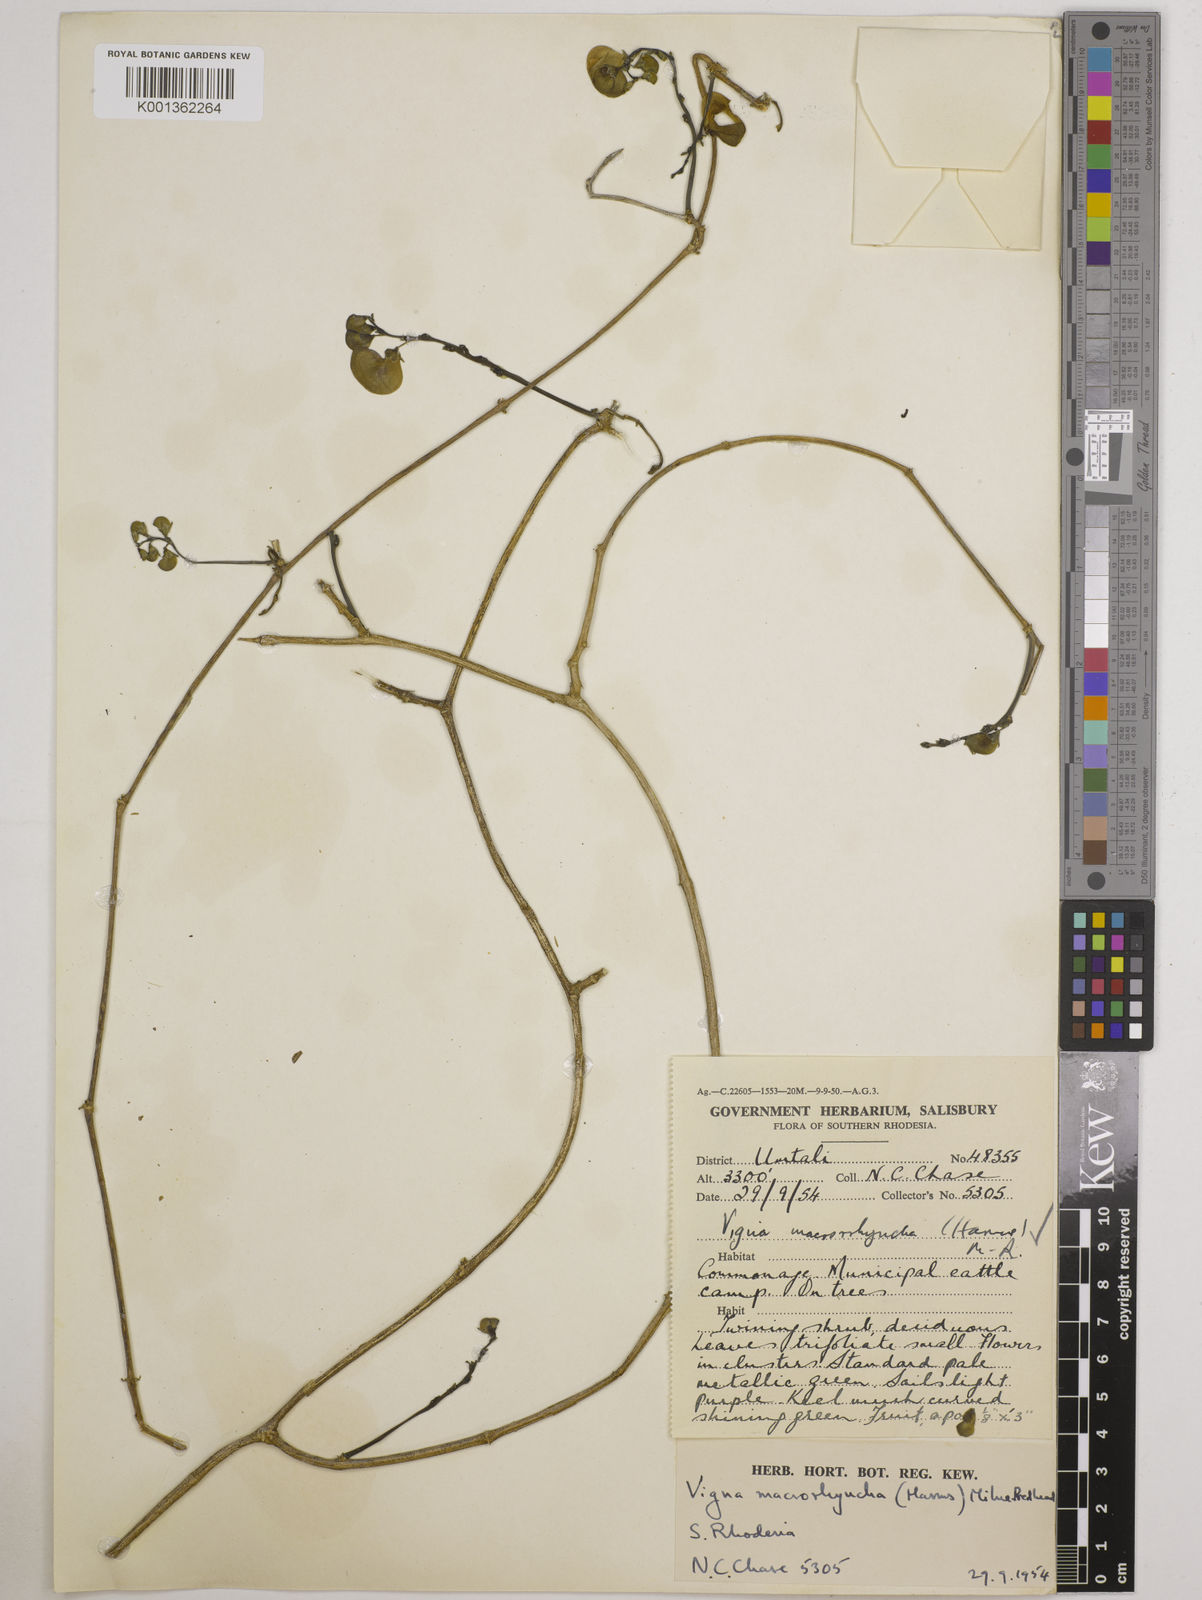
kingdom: Plantae
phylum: Tracheophyta
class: Magnoliopsida
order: Fabales
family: Fabaceae
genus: Wajira
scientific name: Wajira grahamiana
